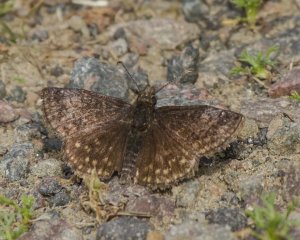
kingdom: Animalia
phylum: Arthropoda
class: Insecta
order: Lepidoptera
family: Hesperiidae
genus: Erynnis
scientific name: Erynnis icelus
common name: Dreamy Duskywing
